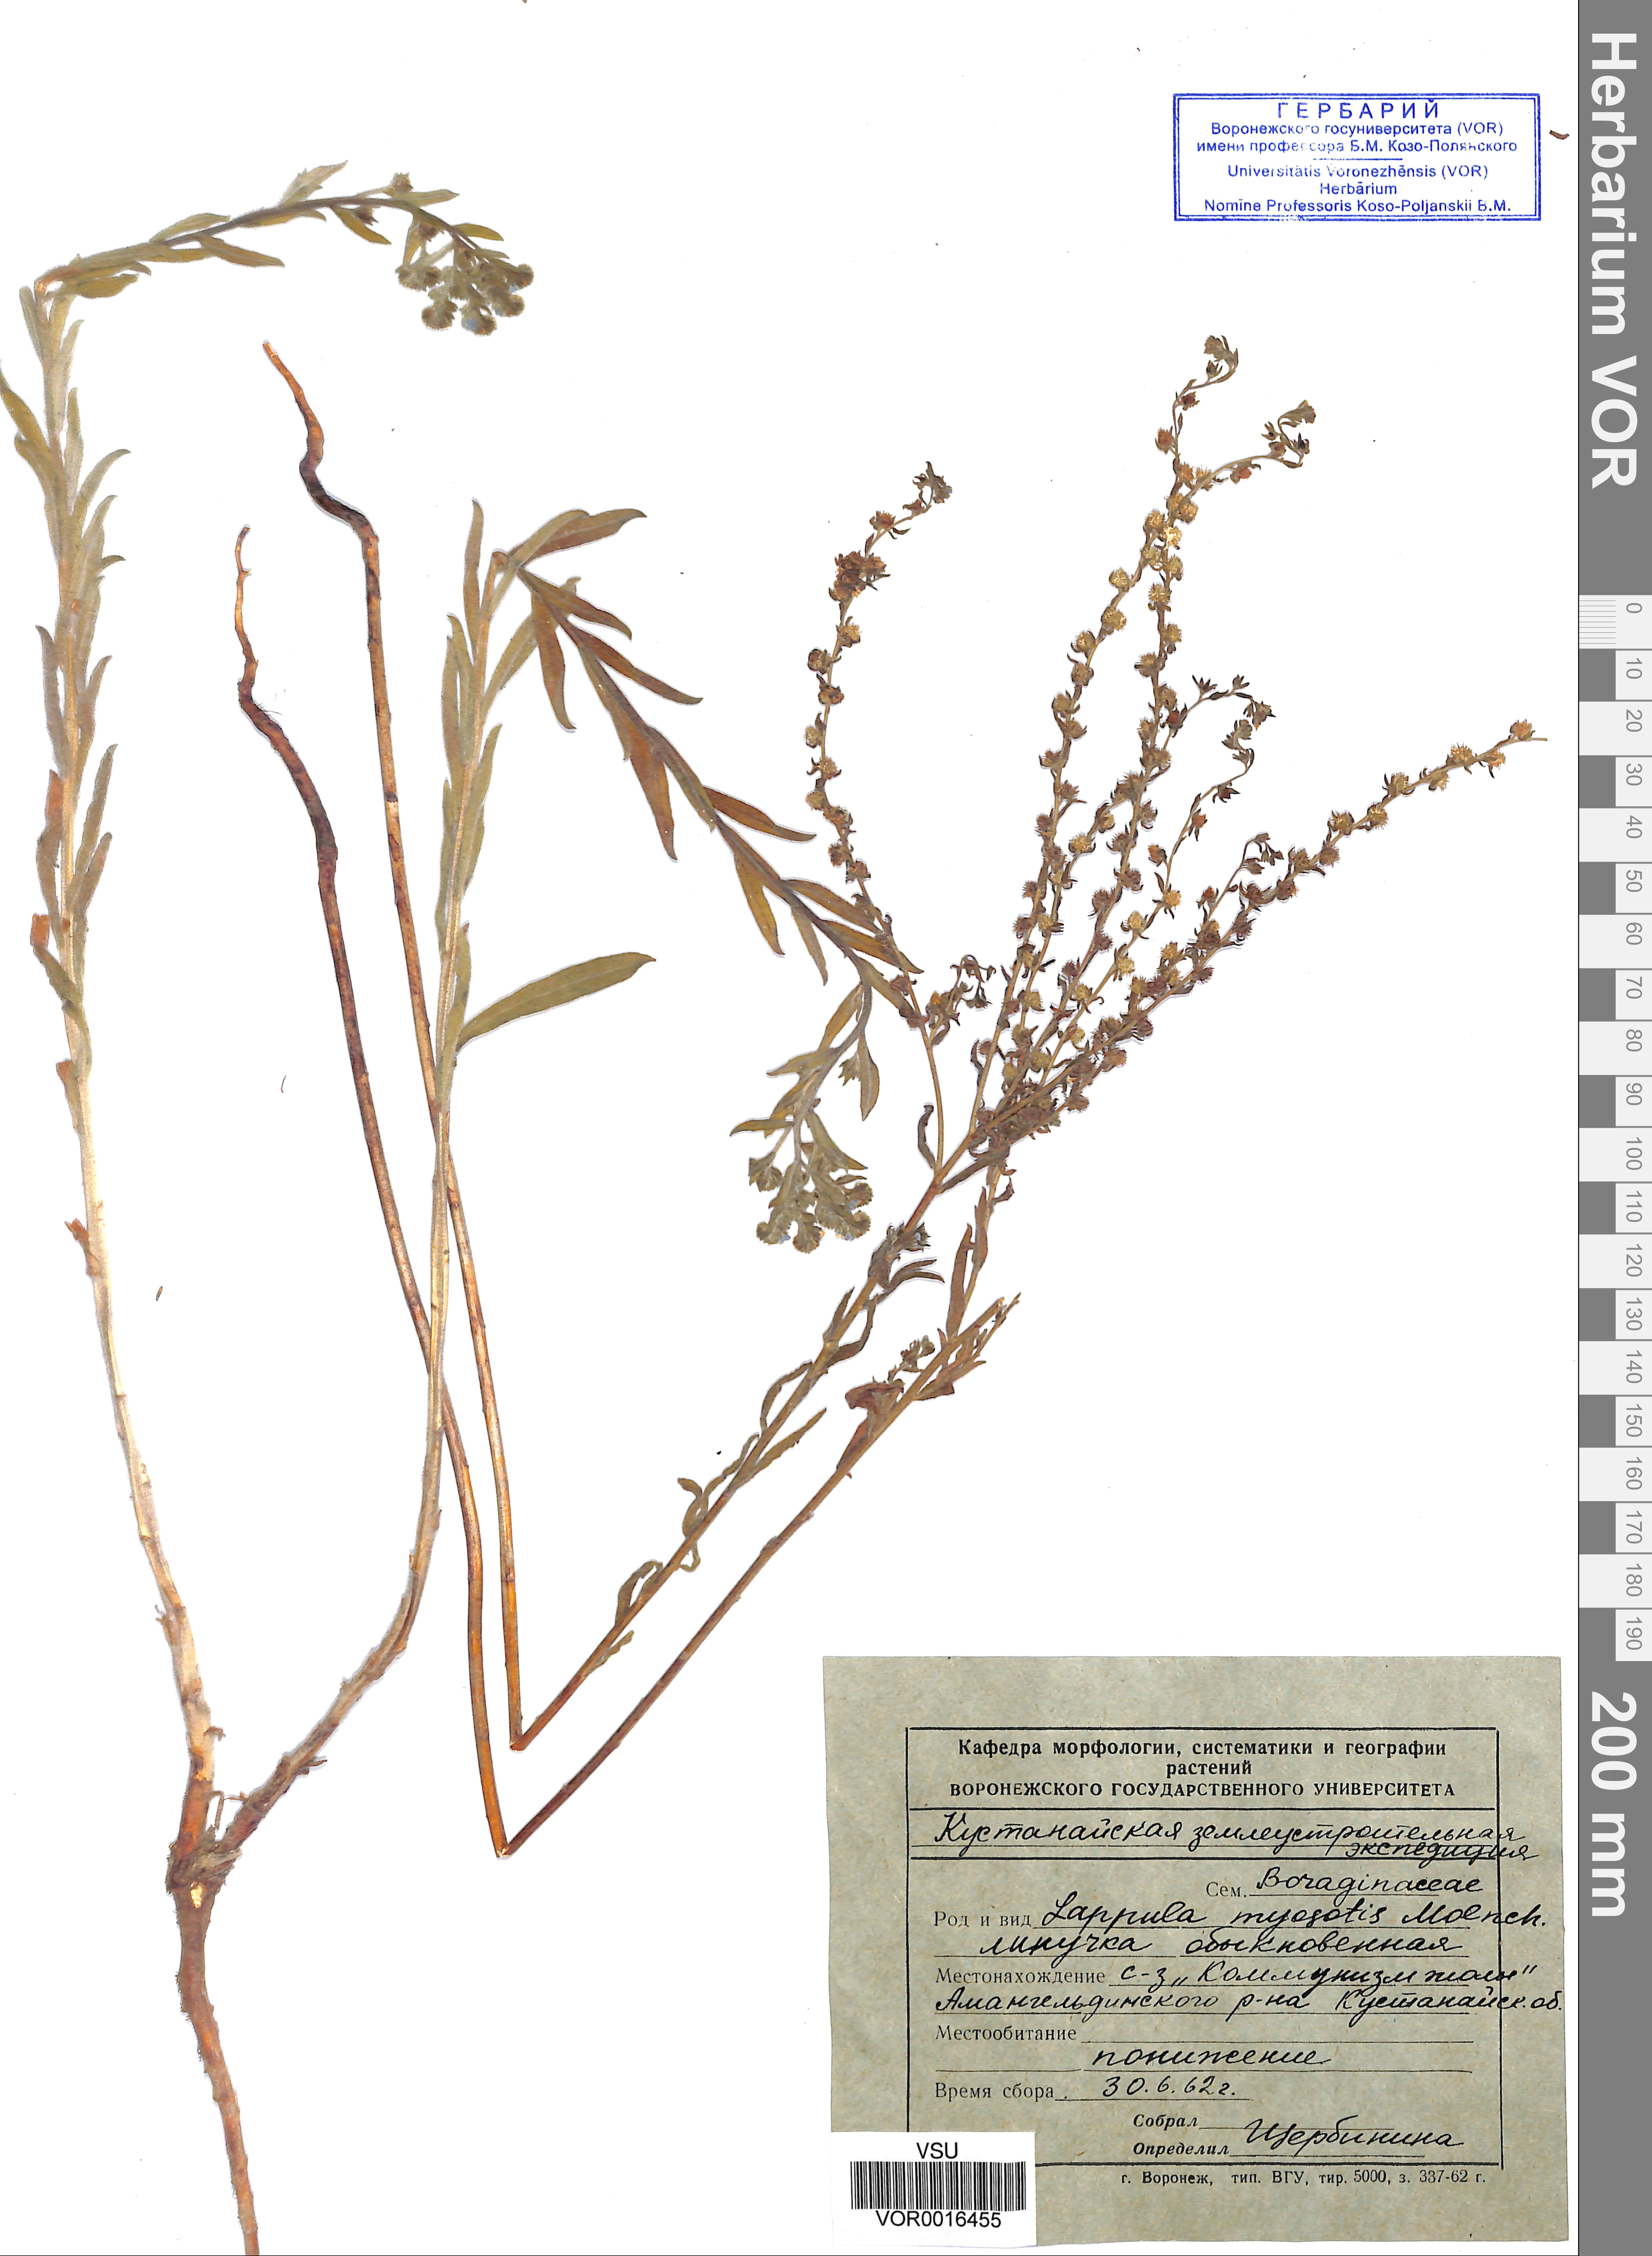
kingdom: Plantae
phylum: Tracheophyta
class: Magnoliopsida
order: Boraginales
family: Boraginaceae
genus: Lappula
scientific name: Lappula squarrosa
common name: European stickseed
